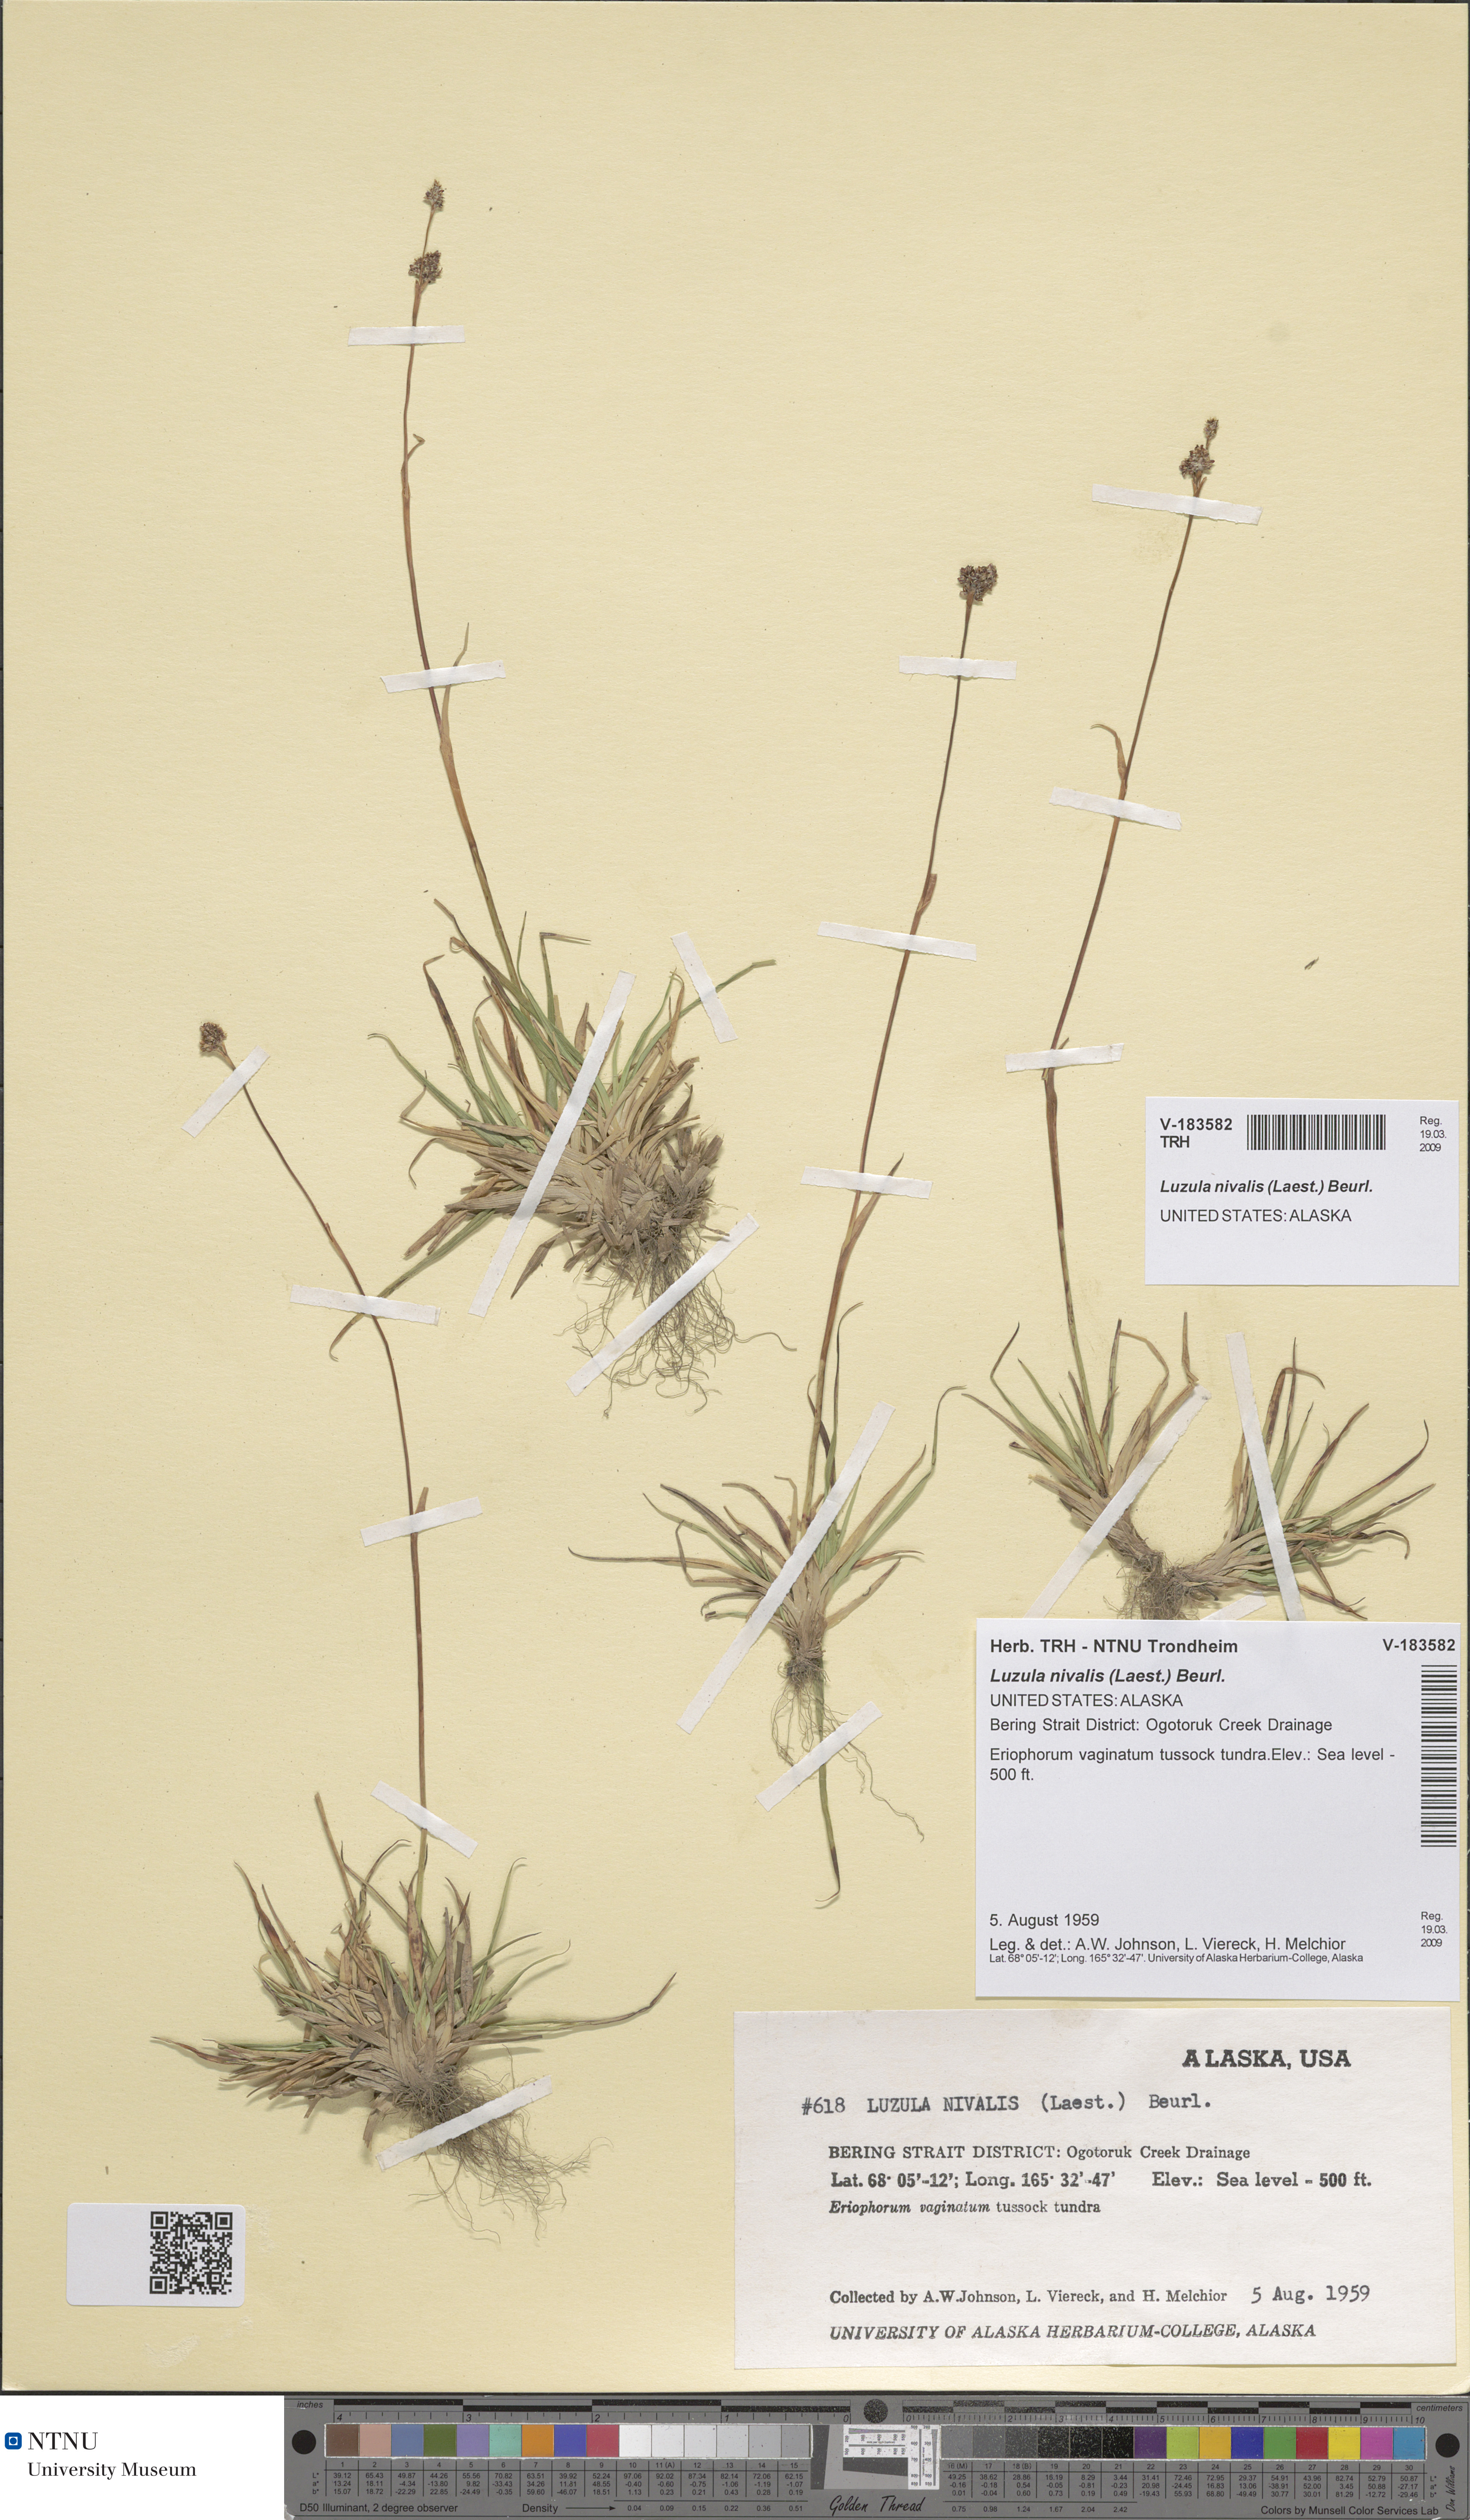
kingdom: Plantae
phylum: Tracheophyta
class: Liliopsida
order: Poales
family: Juncaceae
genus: Luzula
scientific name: Luzula nivalis
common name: Arctic woodrush
